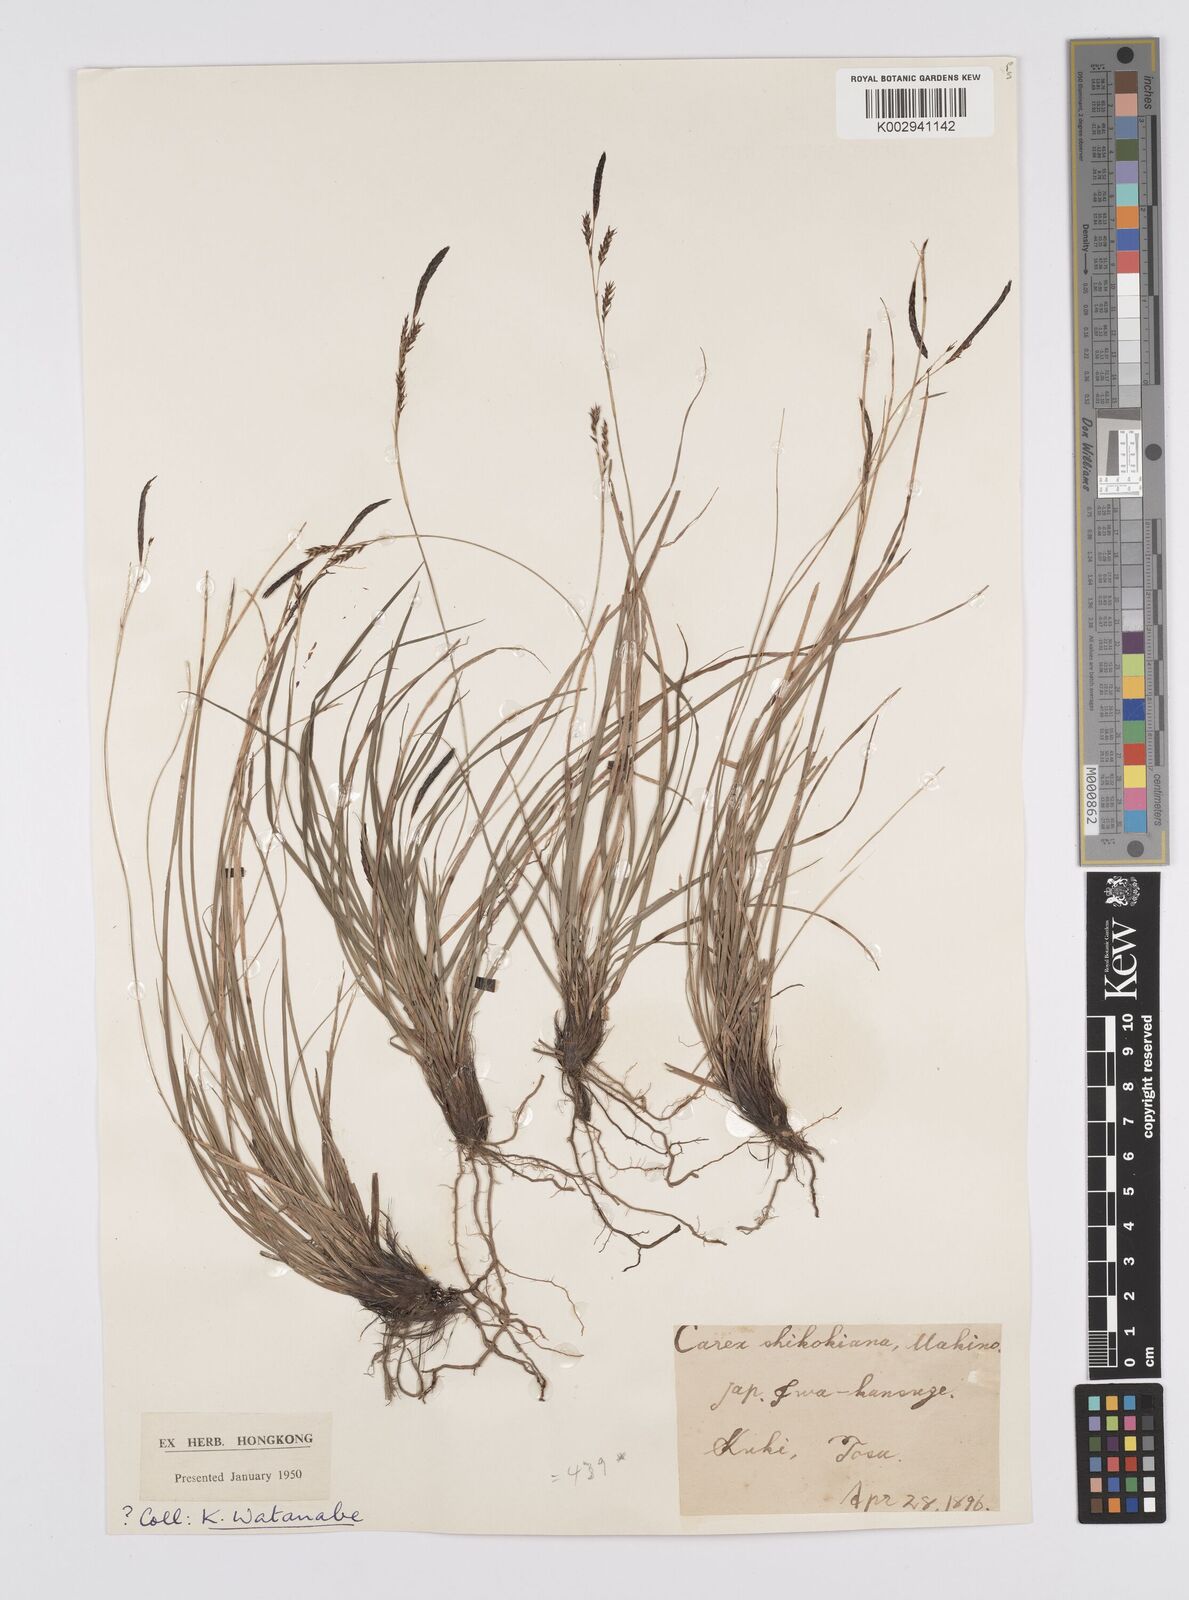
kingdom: Plantae
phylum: Tracheophyta
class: Liliopsida
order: Poales
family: Cyperaceae
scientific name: Cyperaceae
